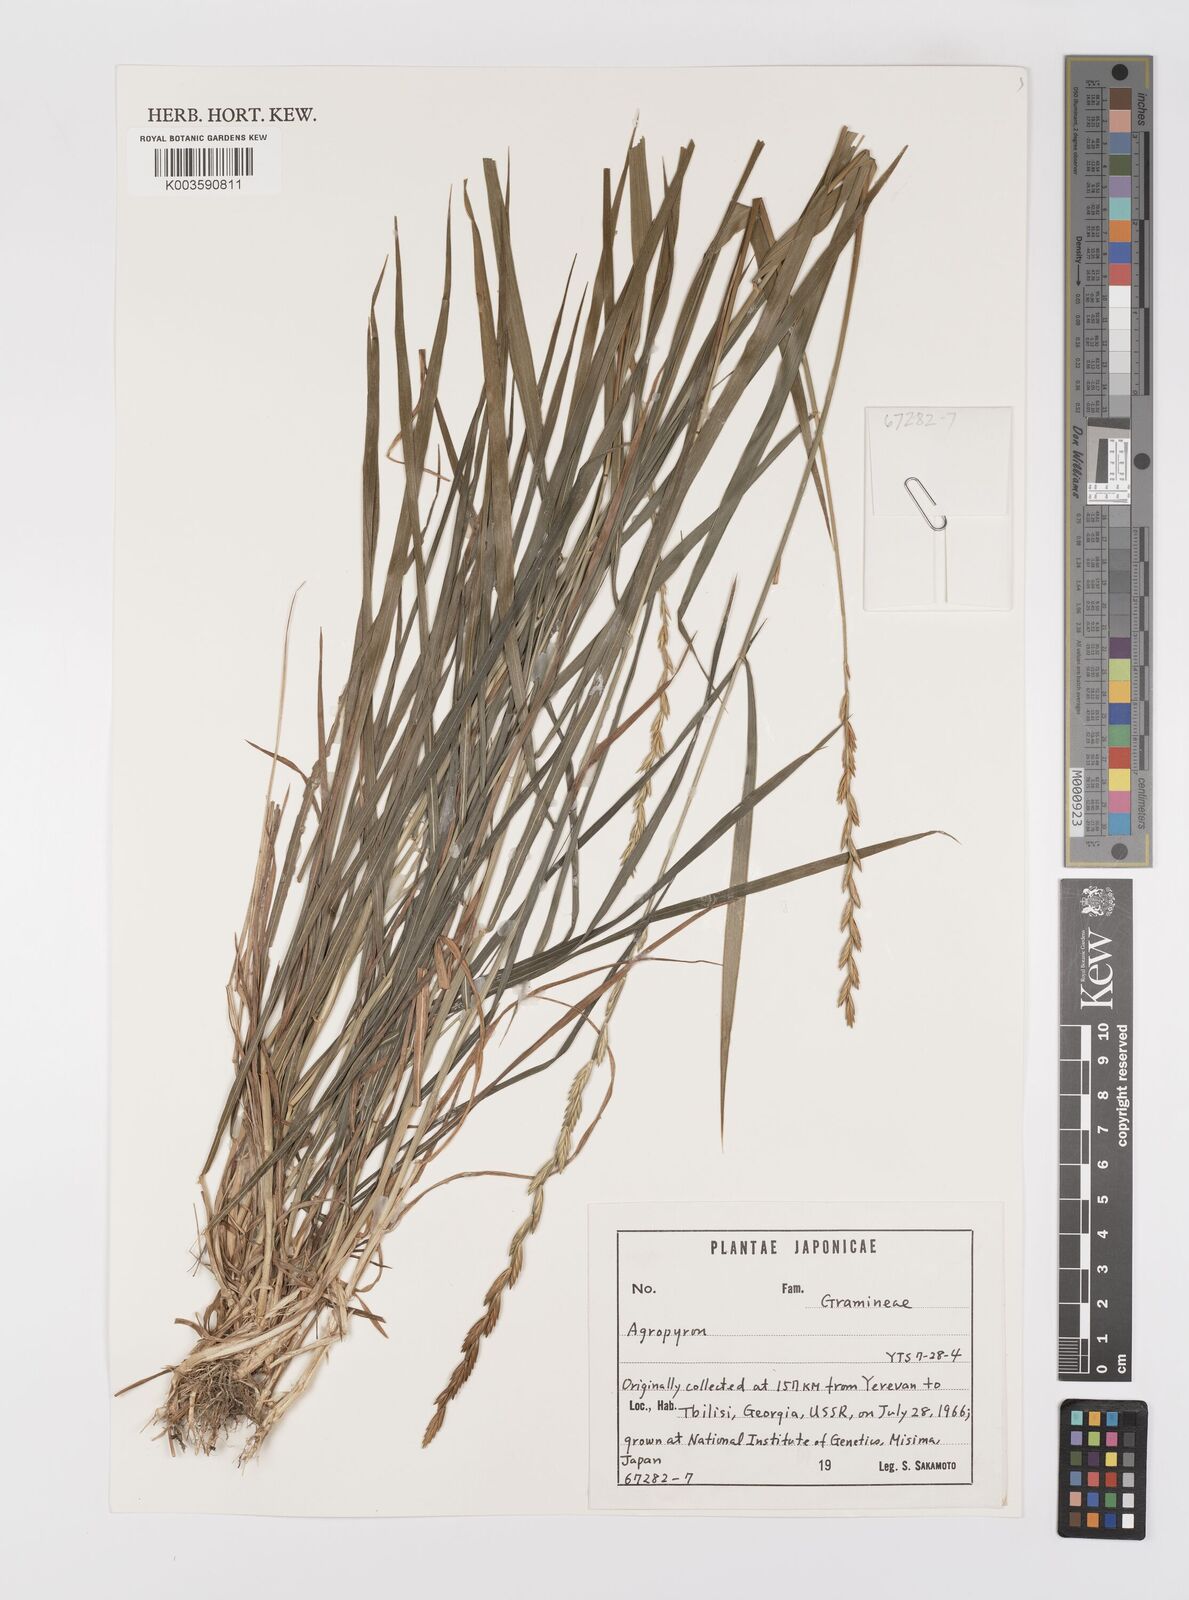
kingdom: Plantae
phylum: Tracheophyta
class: Liliopsida
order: Poales
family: Poaceae
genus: Elymus
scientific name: Elymus
